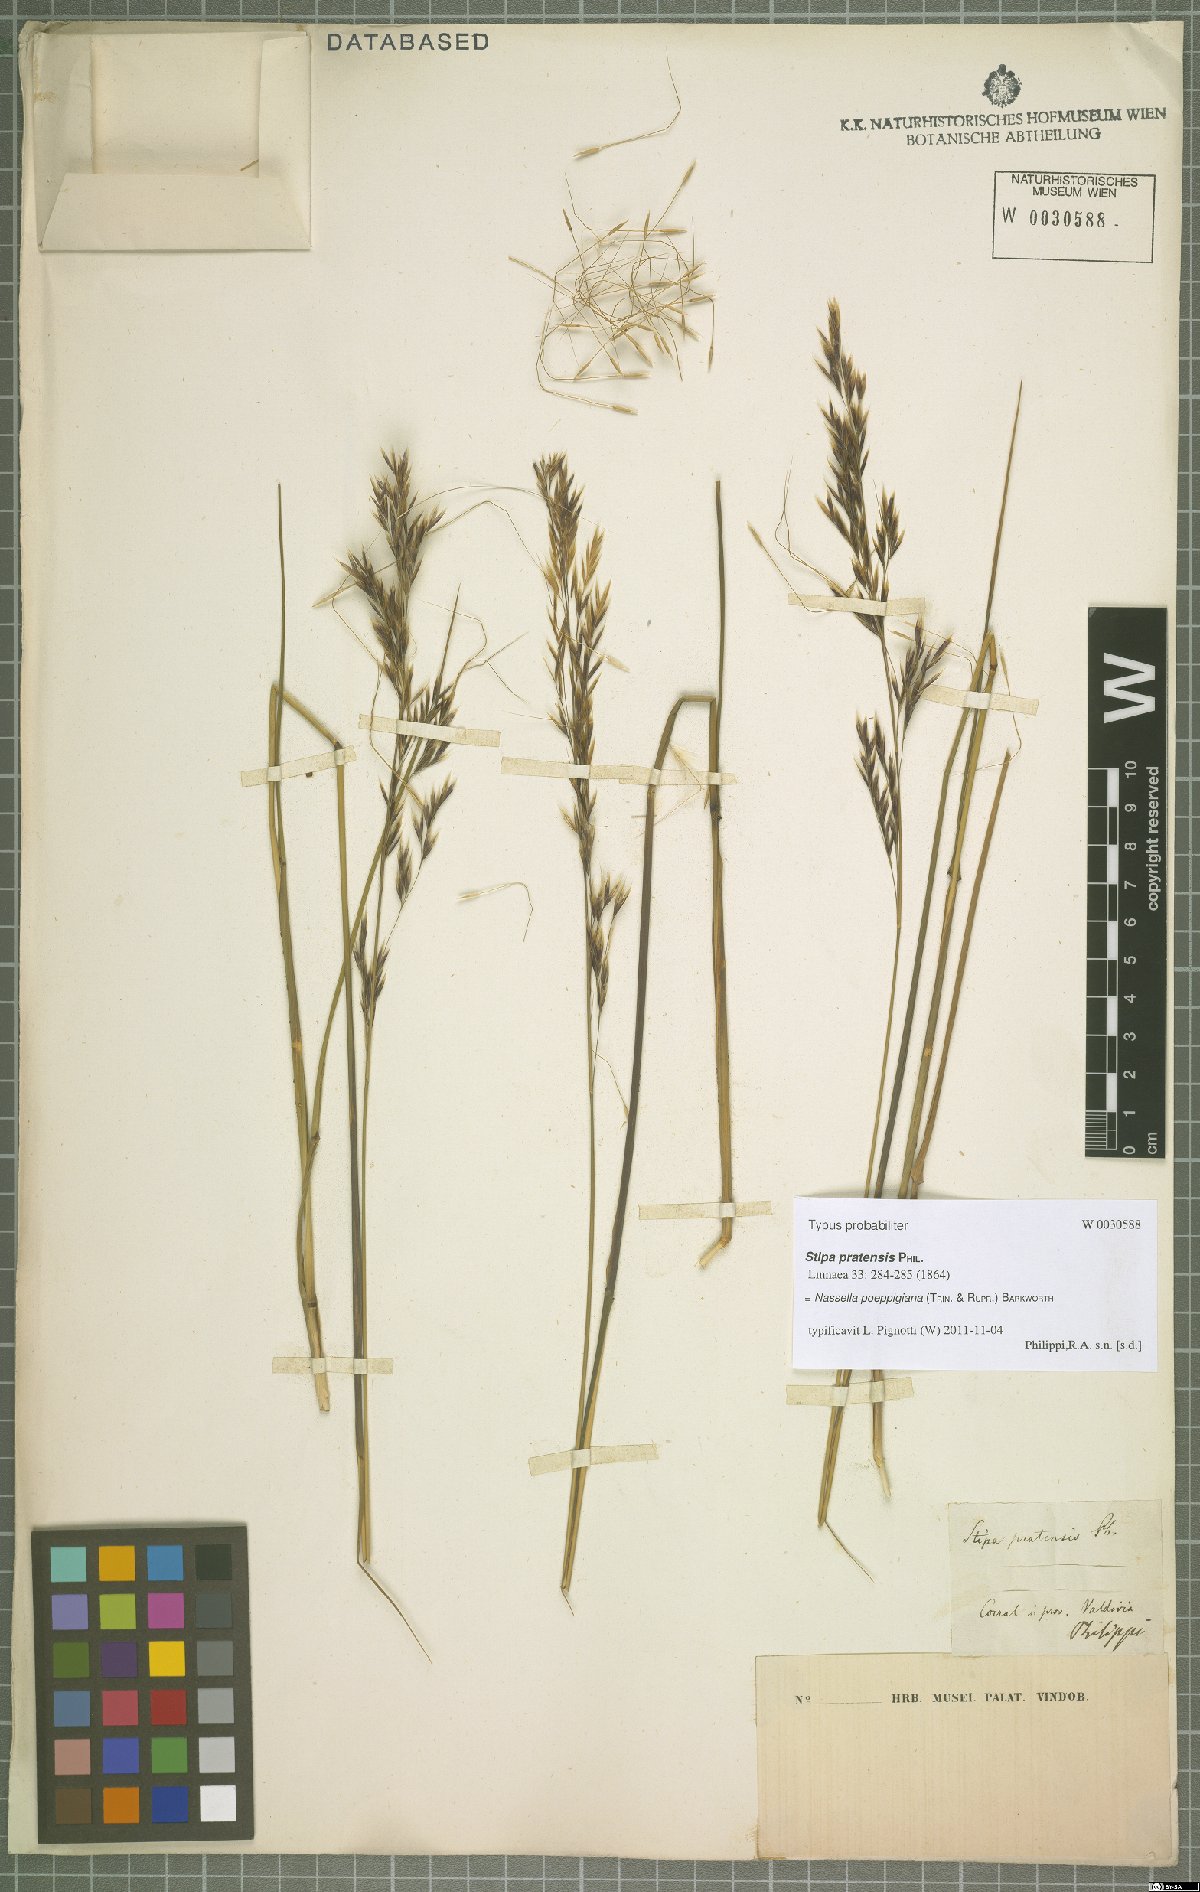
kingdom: Plantae
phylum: Tracheophyta
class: Liliopsida
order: Poales
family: Poaceae
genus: Nassella
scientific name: Nassella poeppigiana
